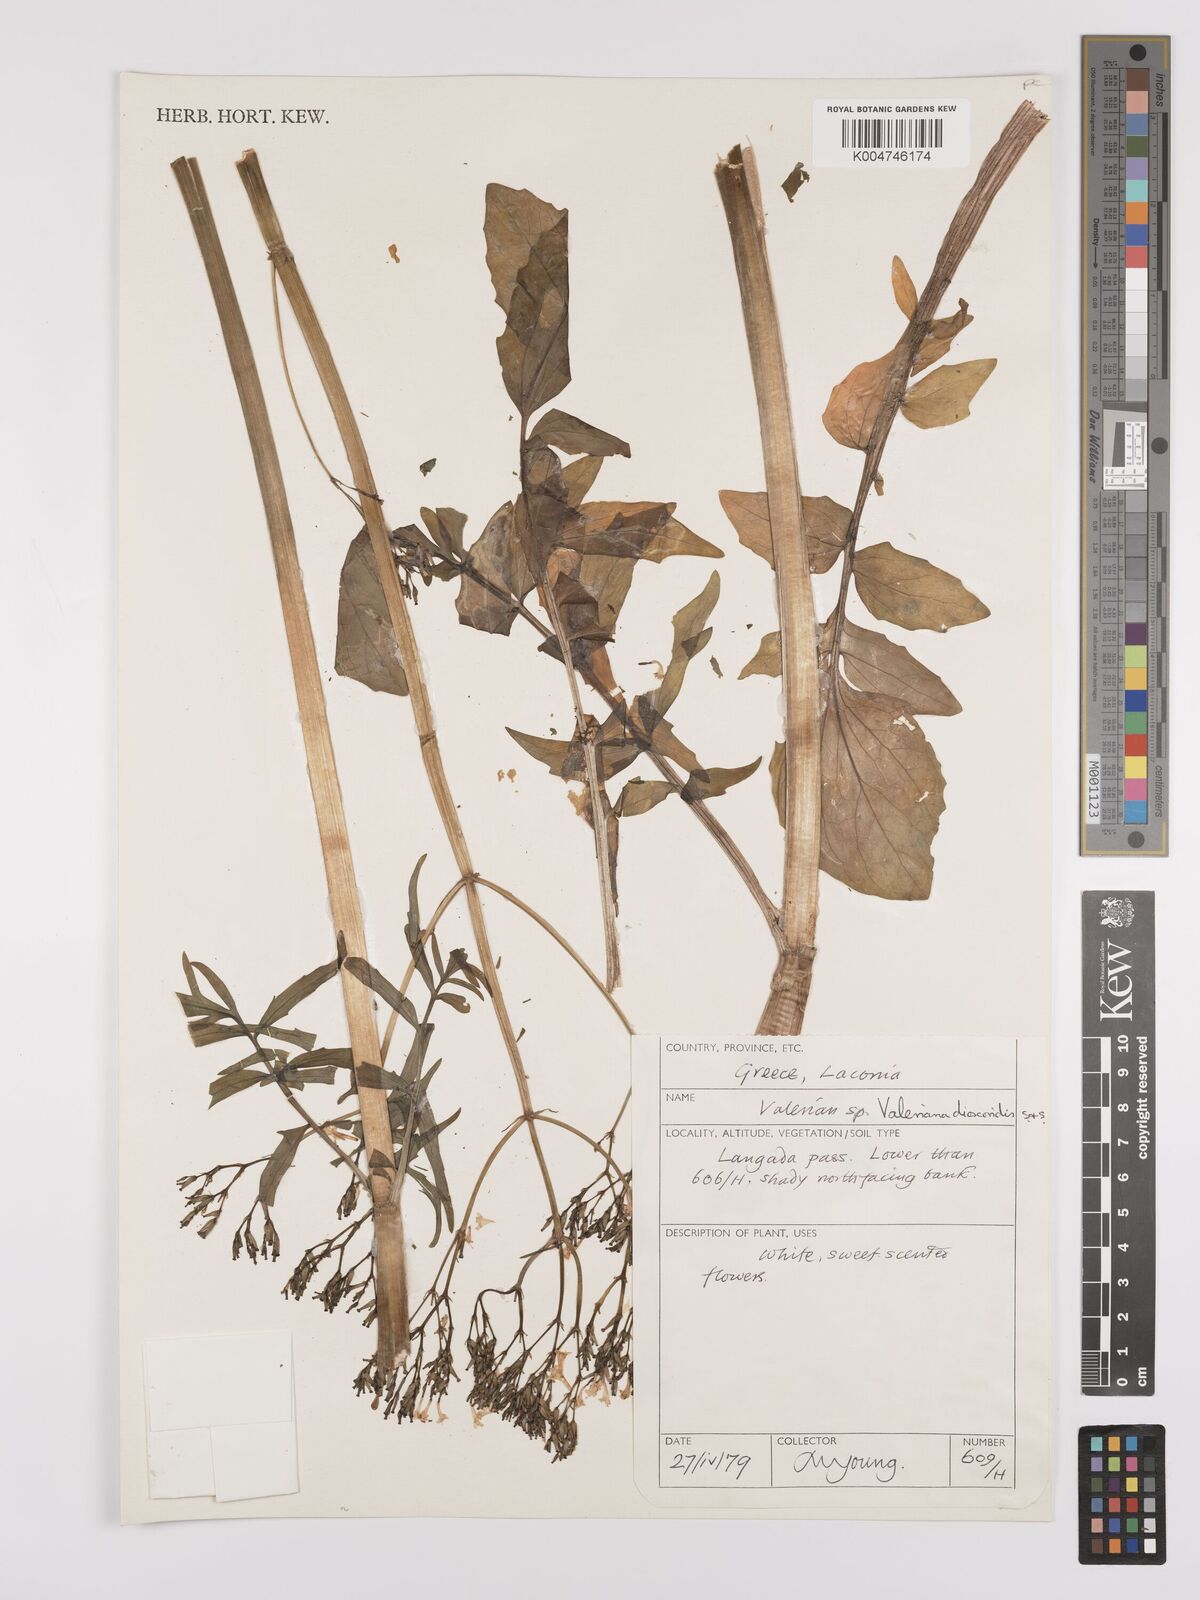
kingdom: Plantae
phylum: Tracheophyta
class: Magnoliopsida
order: Dipsacales
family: Caprifoliaceae
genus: Valeriana
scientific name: Valeriana dioscoridis
